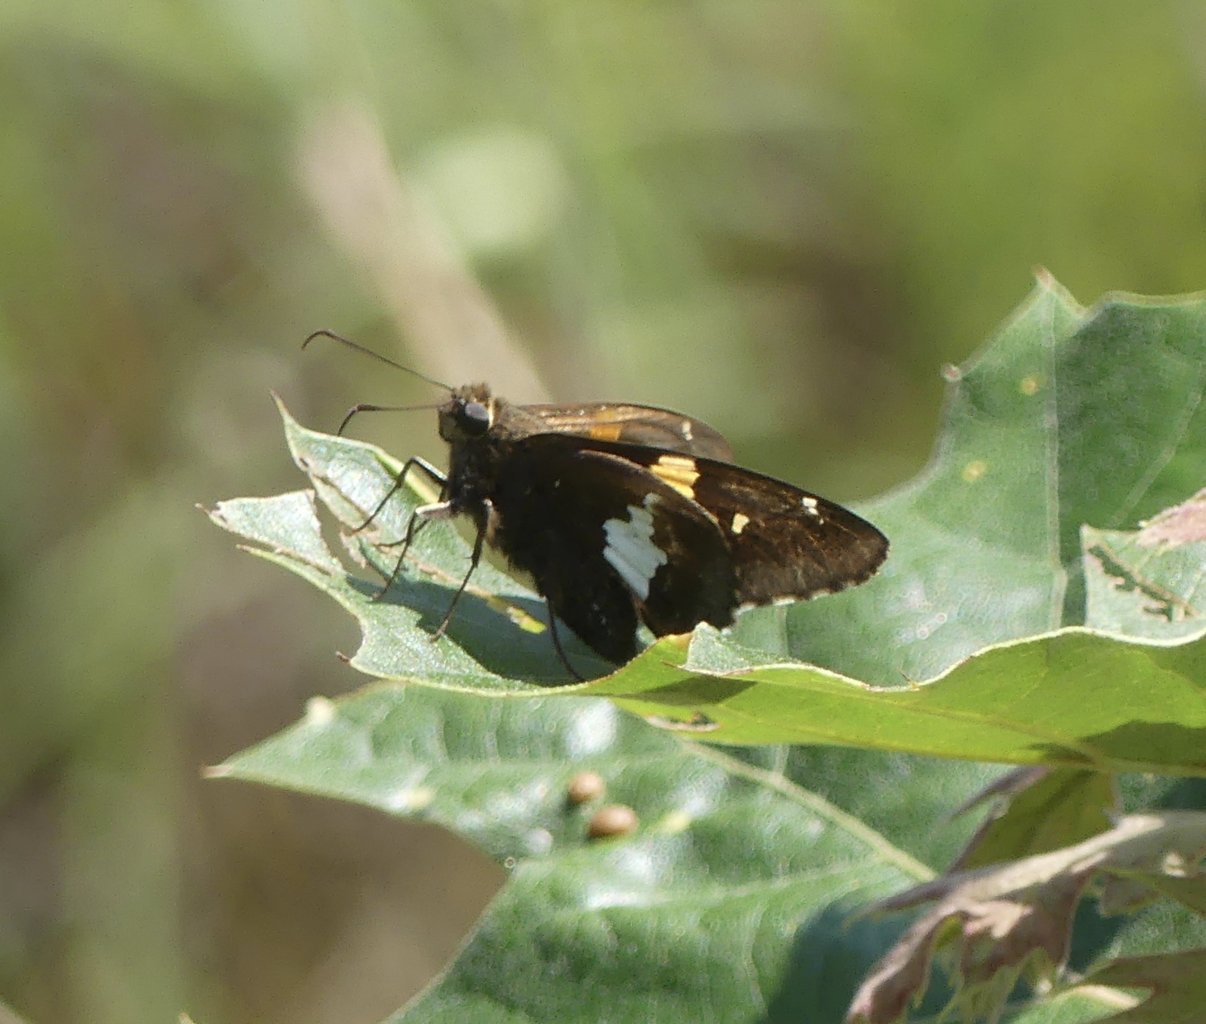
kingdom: Animalia
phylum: Arthropoda
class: Insecta
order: Lepidoptera
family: Hesperiidae
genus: Epargyreus
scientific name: Epargyreus clarus
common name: Silver-spotted Skipper
